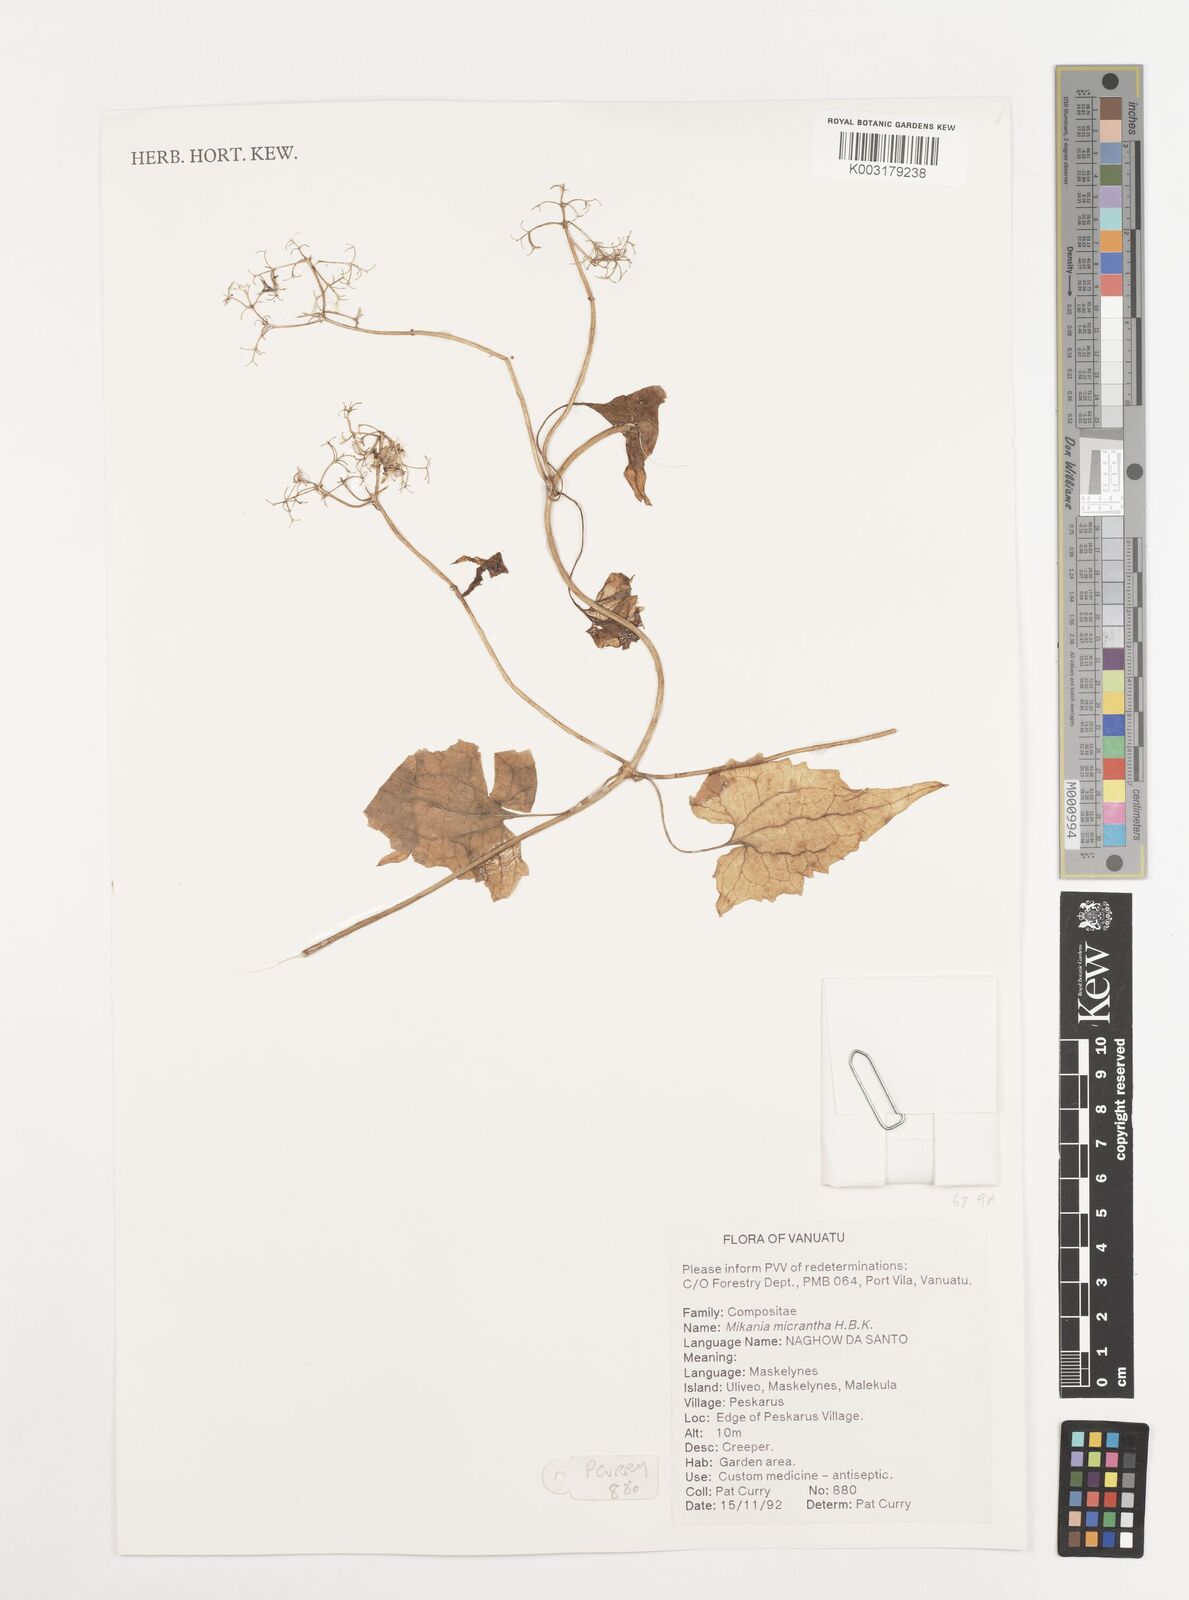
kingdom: Plantae
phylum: Tracheophyta
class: Magnoliopsida
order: Asterales
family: Asteraceae
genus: Mikania
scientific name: Mikania micrantha
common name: Mile-a-minute
